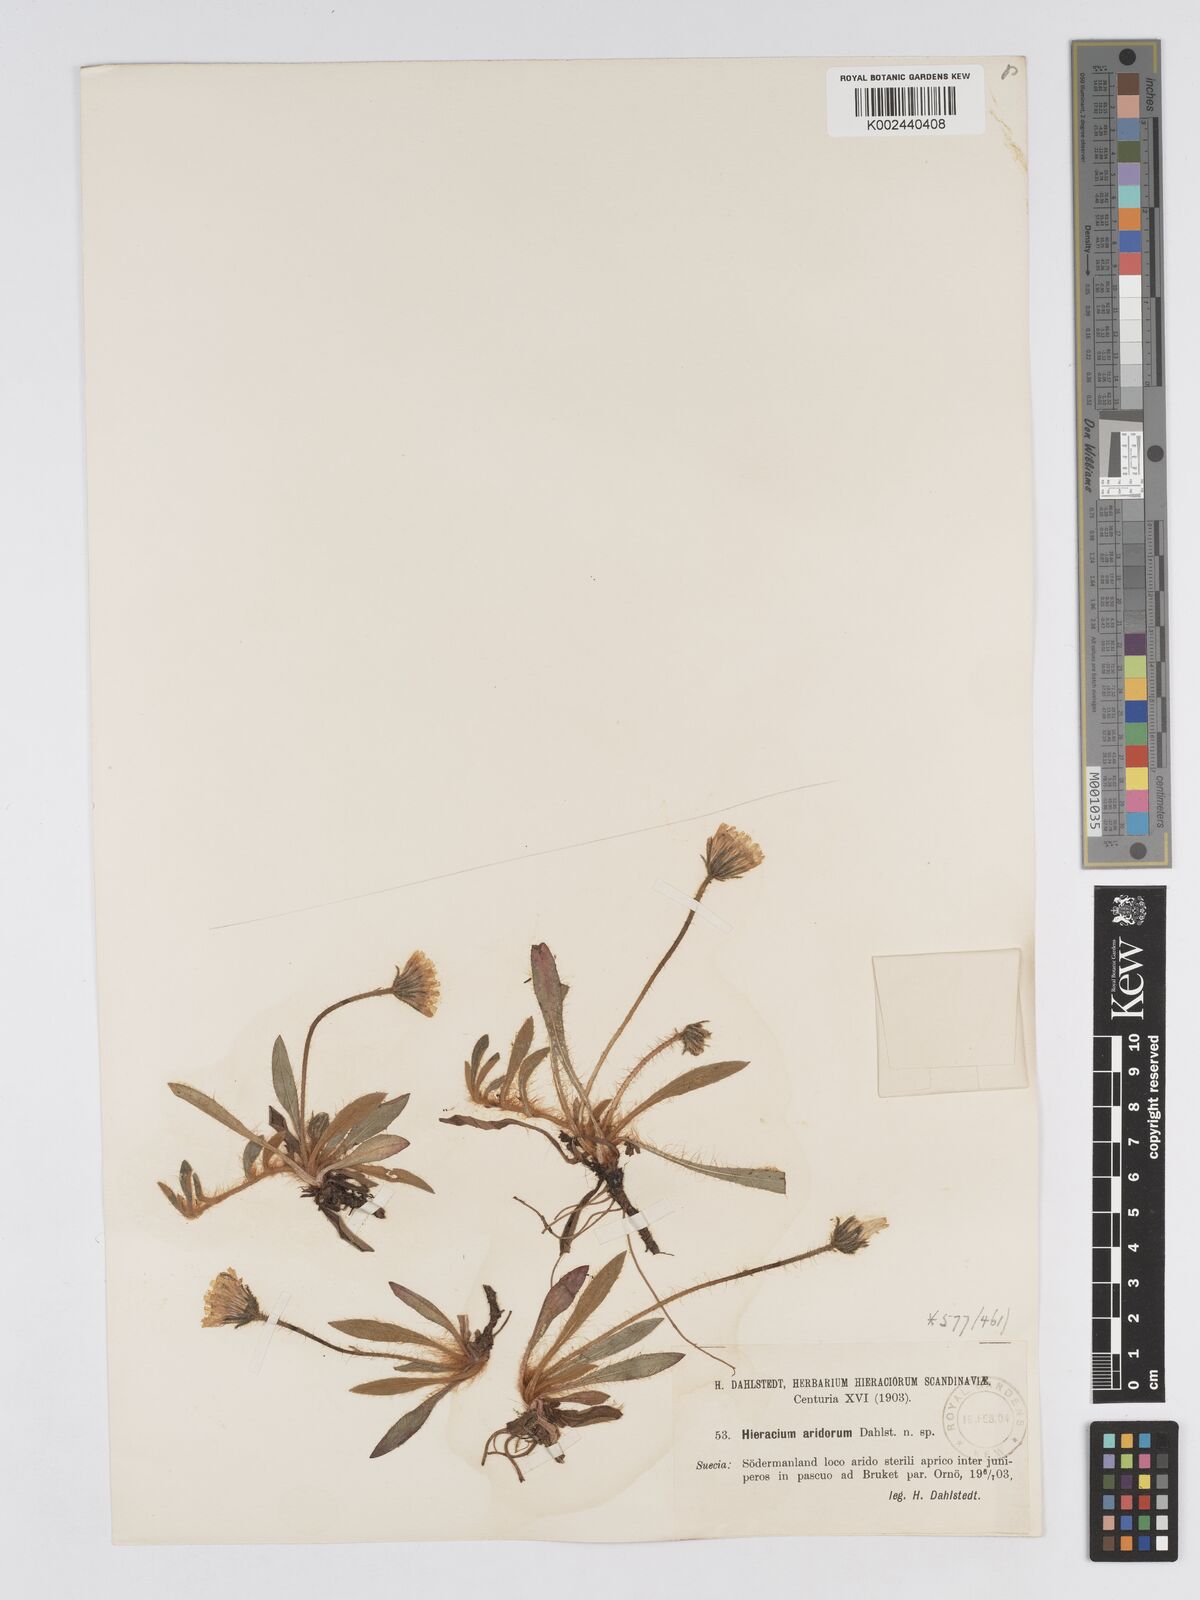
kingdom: Plantae
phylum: Tracheophyta
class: Magnoliopsida
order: Asterales
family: Asteraceae
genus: Pilosella
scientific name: Pilosella officinarum
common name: Mouse-ear hawkweed
